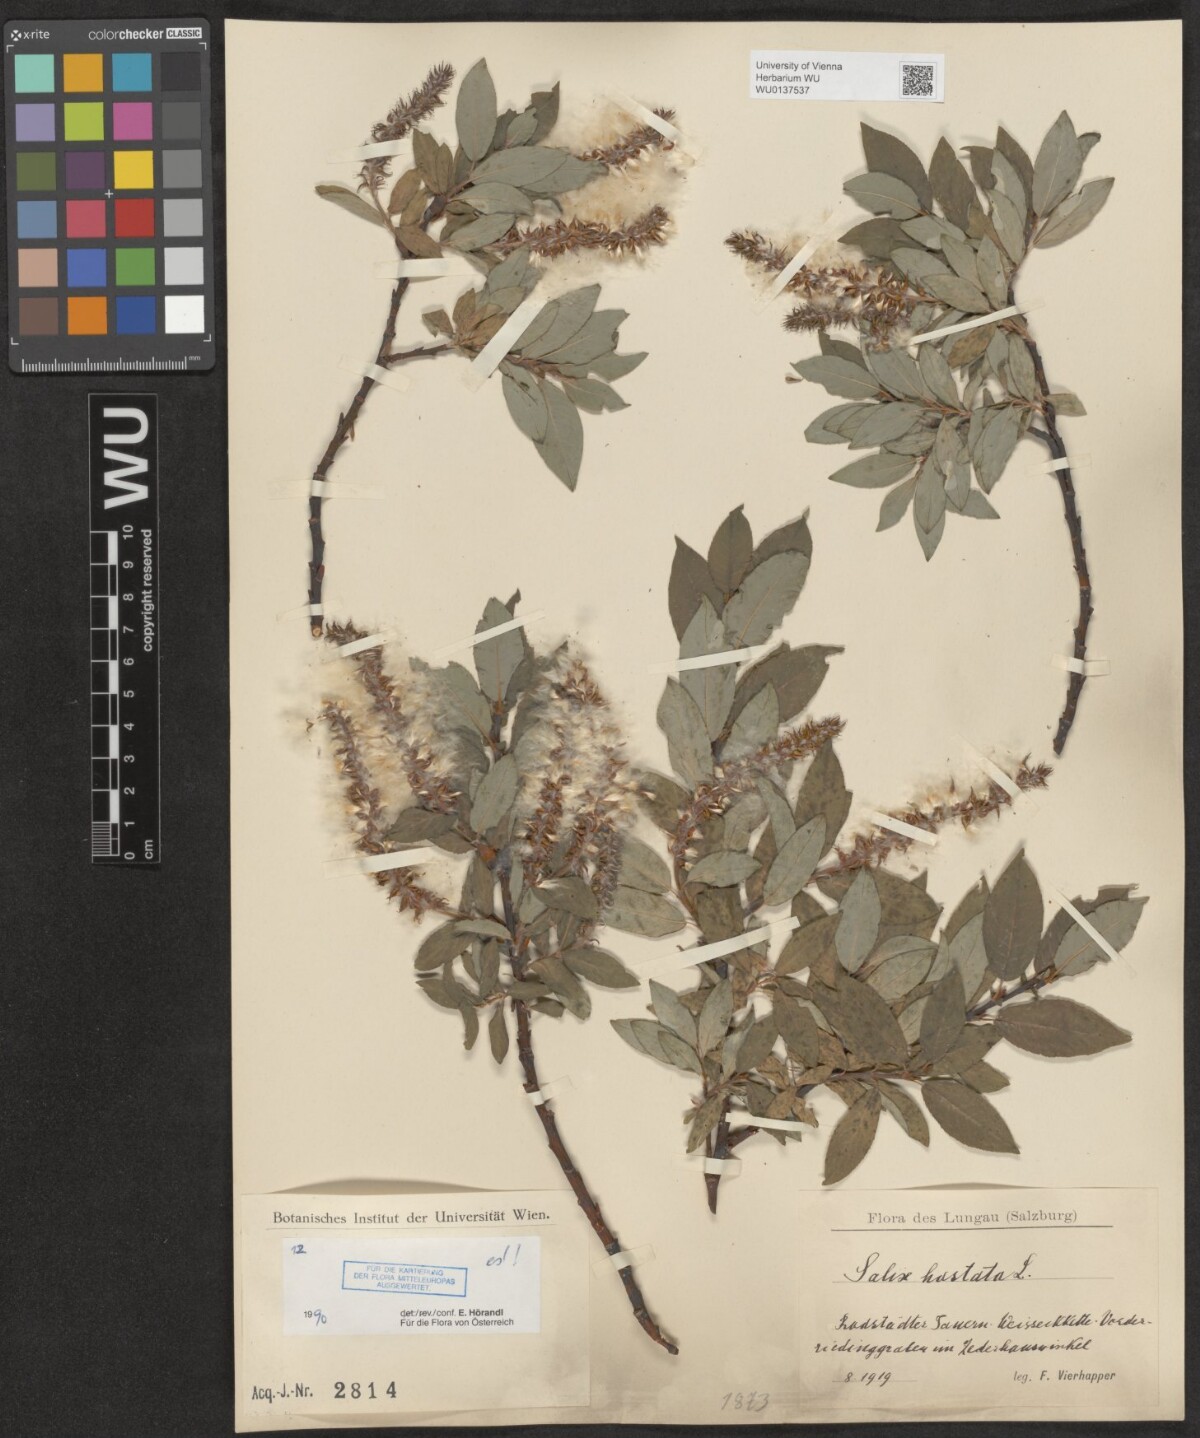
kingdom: Plantae
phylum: Tracheophyta
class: Magnoliopsida
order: Malpighiales
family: Salicaceae
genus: Salix
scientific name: Salix hastata
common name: Halberd willow
